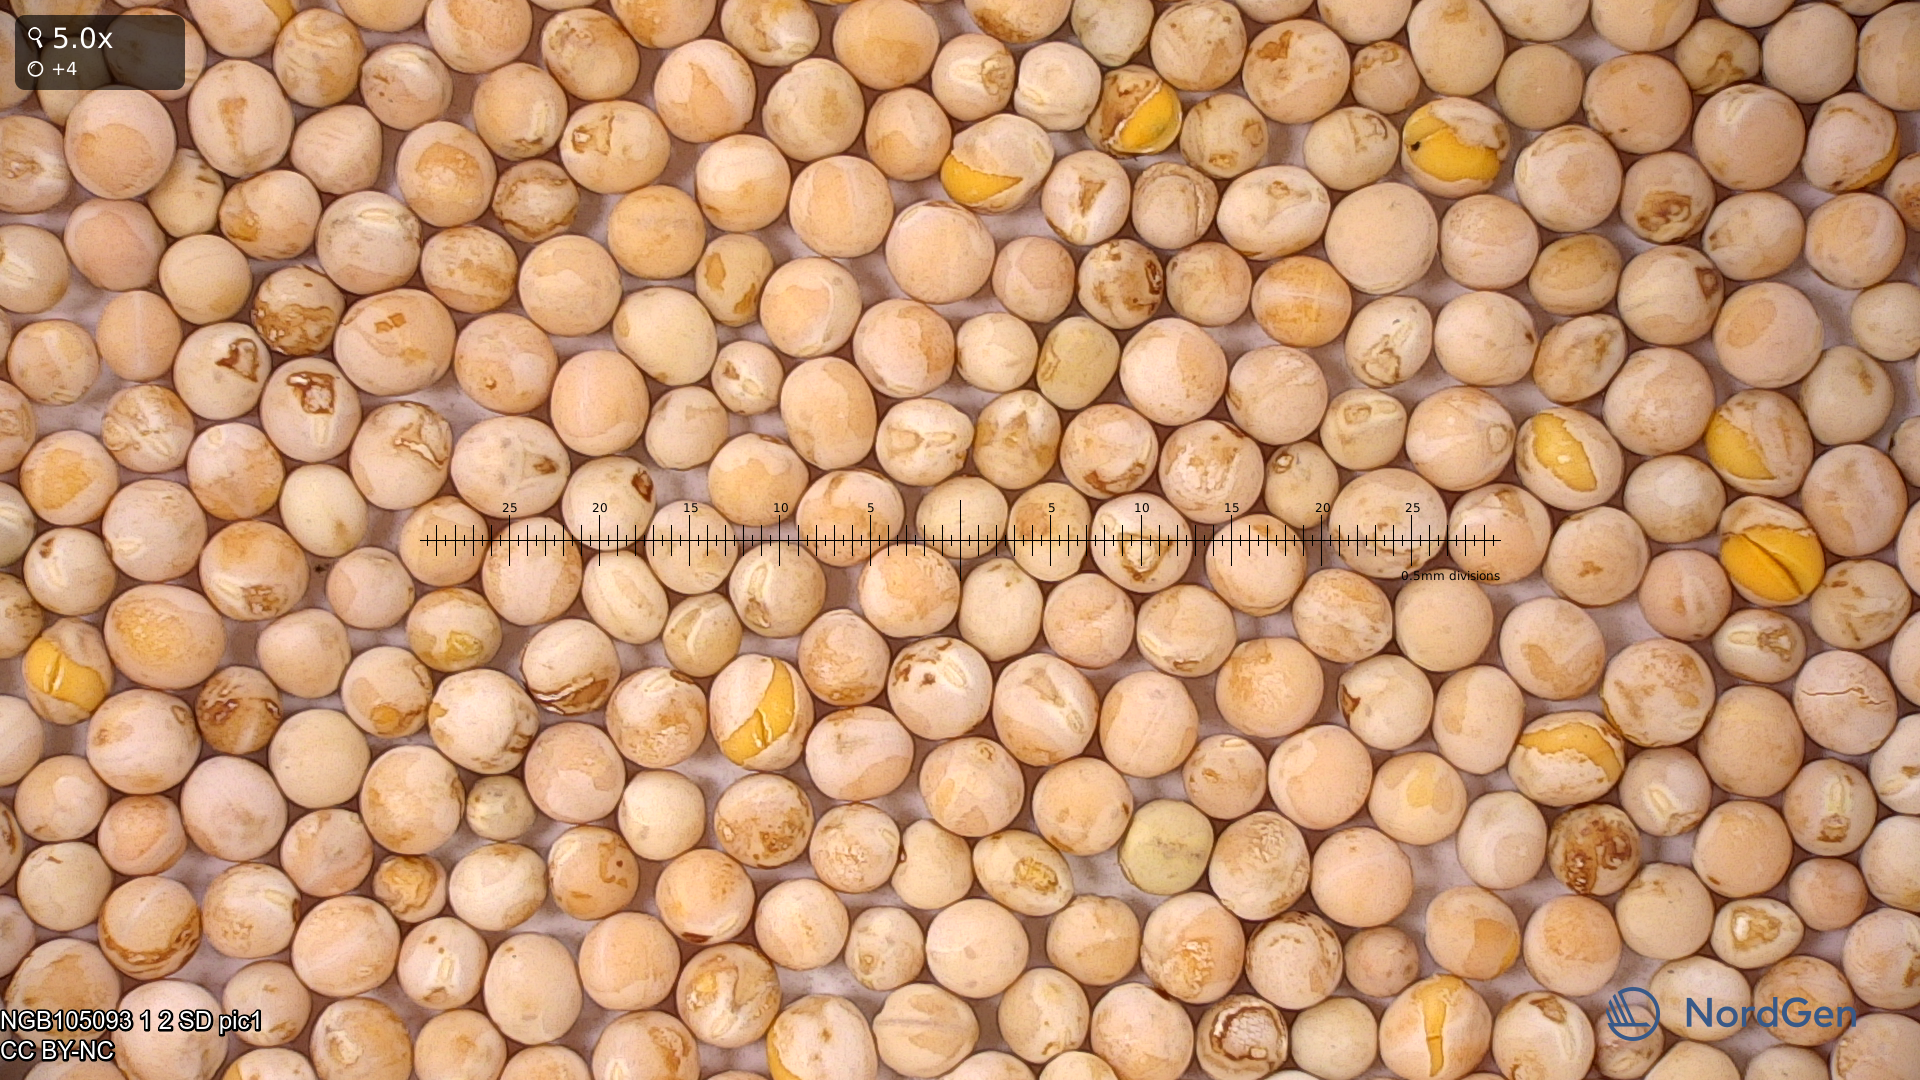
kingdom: Plantae
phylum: Tracheophyta
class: Magnoliopsida
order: Fabales
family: Fabaceae
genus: Lathyrus
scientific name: Lathyrus oleraceus
